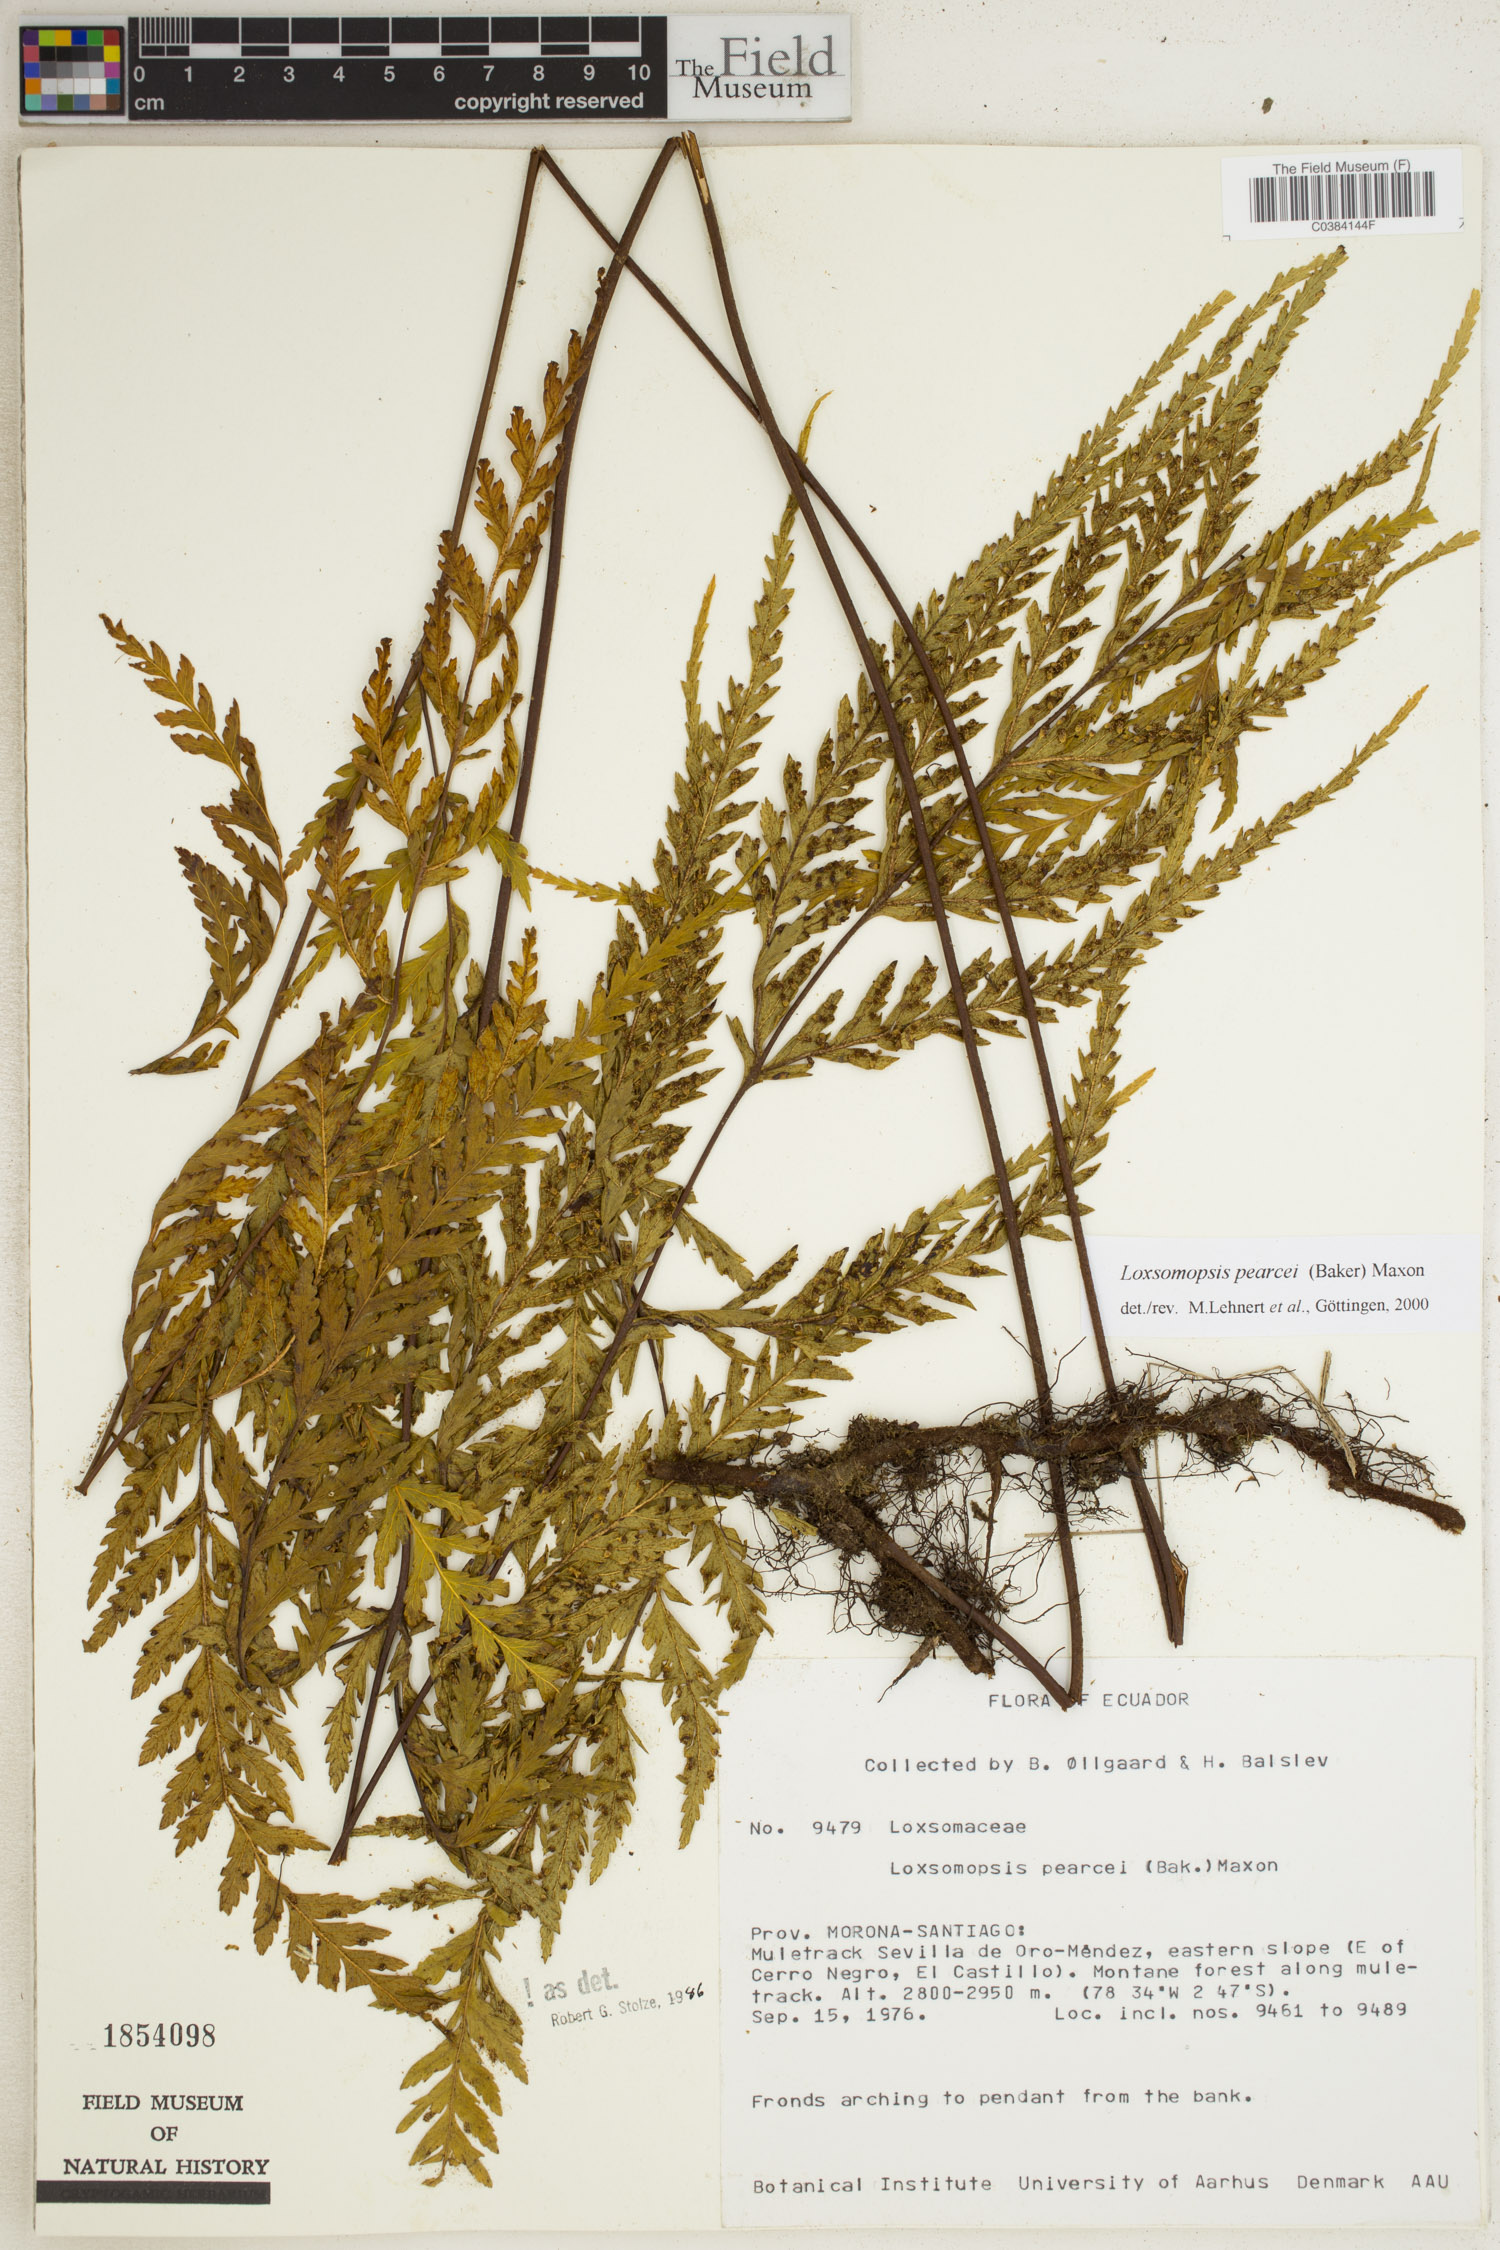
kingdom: Plantae
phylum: Tracheophyta
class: Polypodiopsida
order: Cyatheales
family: Loxsomataceae
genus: Loxsomopsis
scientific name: Loxsomopsis pearcei
